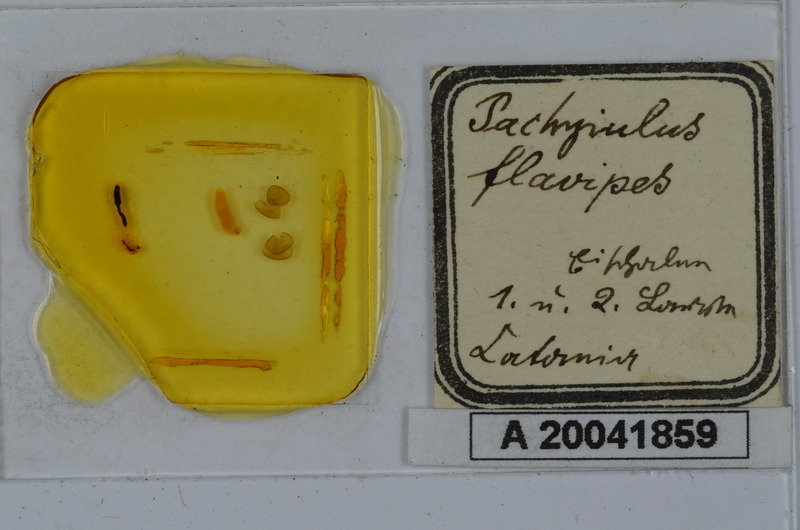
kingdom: Animalia
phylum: Arthropoda
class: Diplopoda
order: Julida
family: Julidae
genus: Pachyiulus
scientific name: Pachyiulus flavipes
